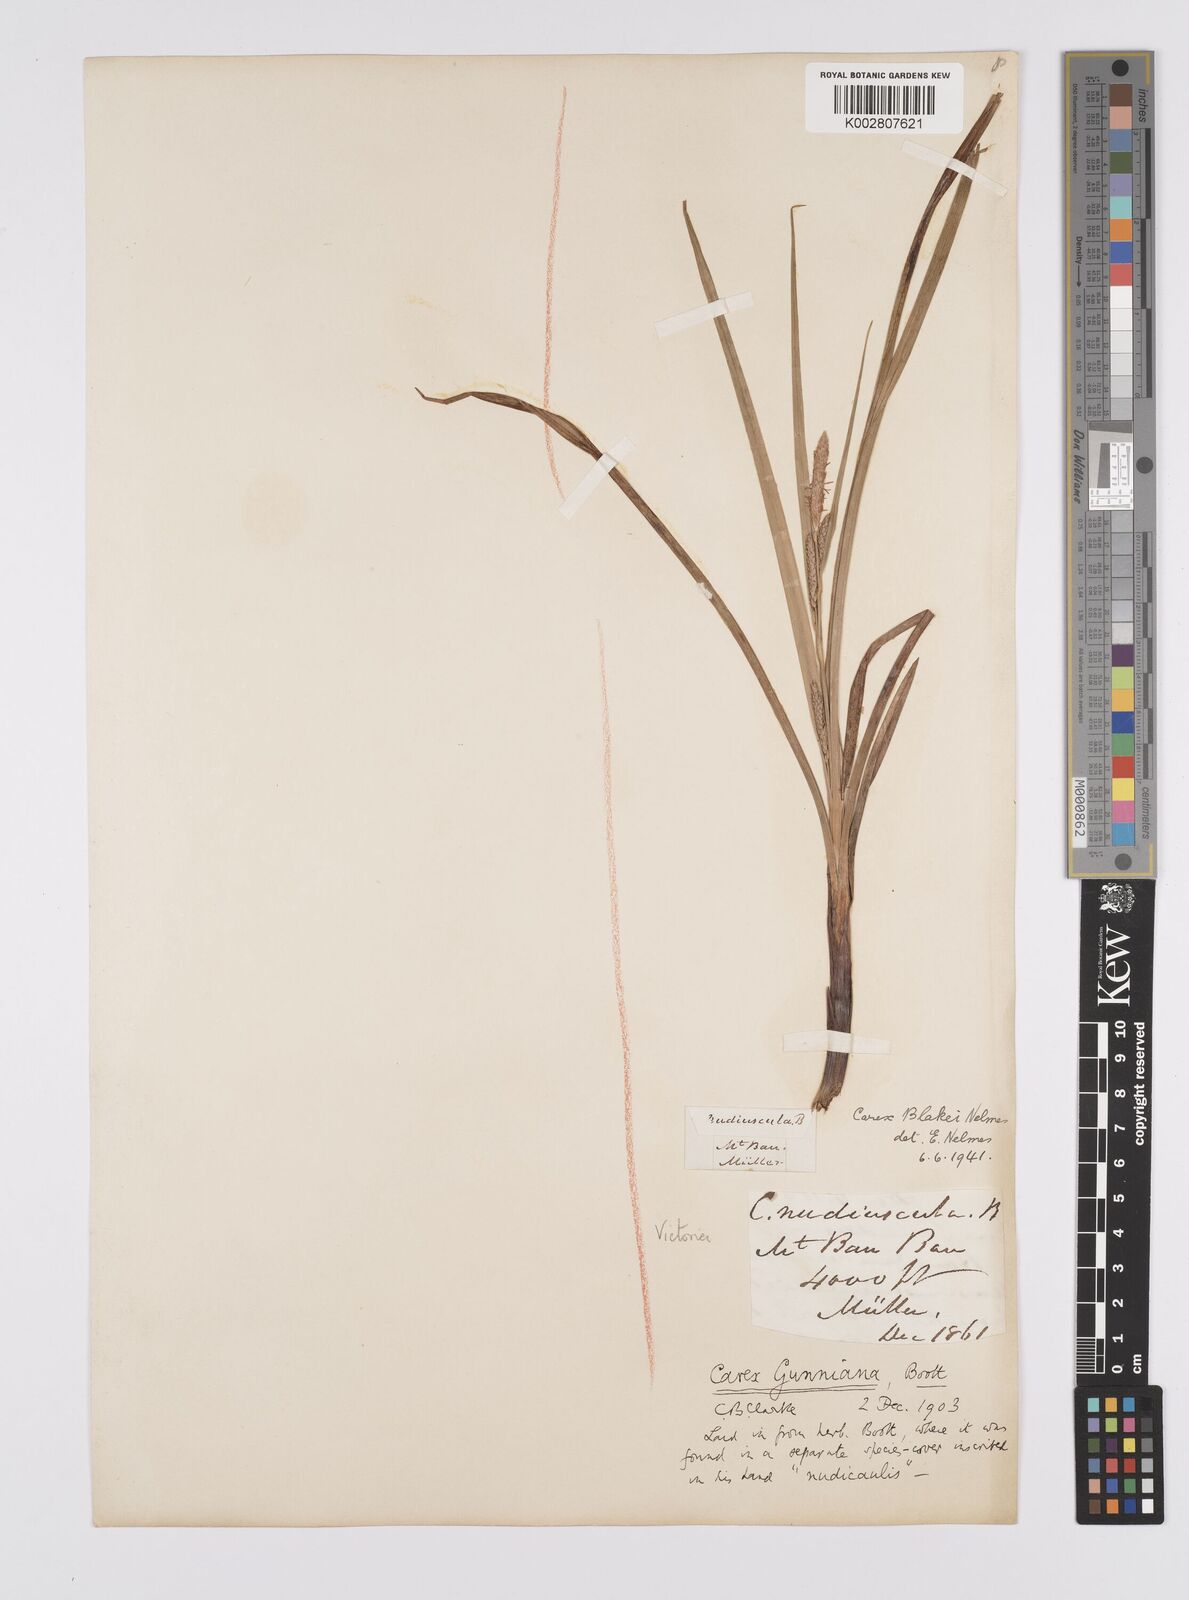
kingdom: Plantae
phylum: Tracheophyta
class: Liliopsida
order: Poales
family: Cyperaceae
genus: Carex
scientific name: Carex blakei
